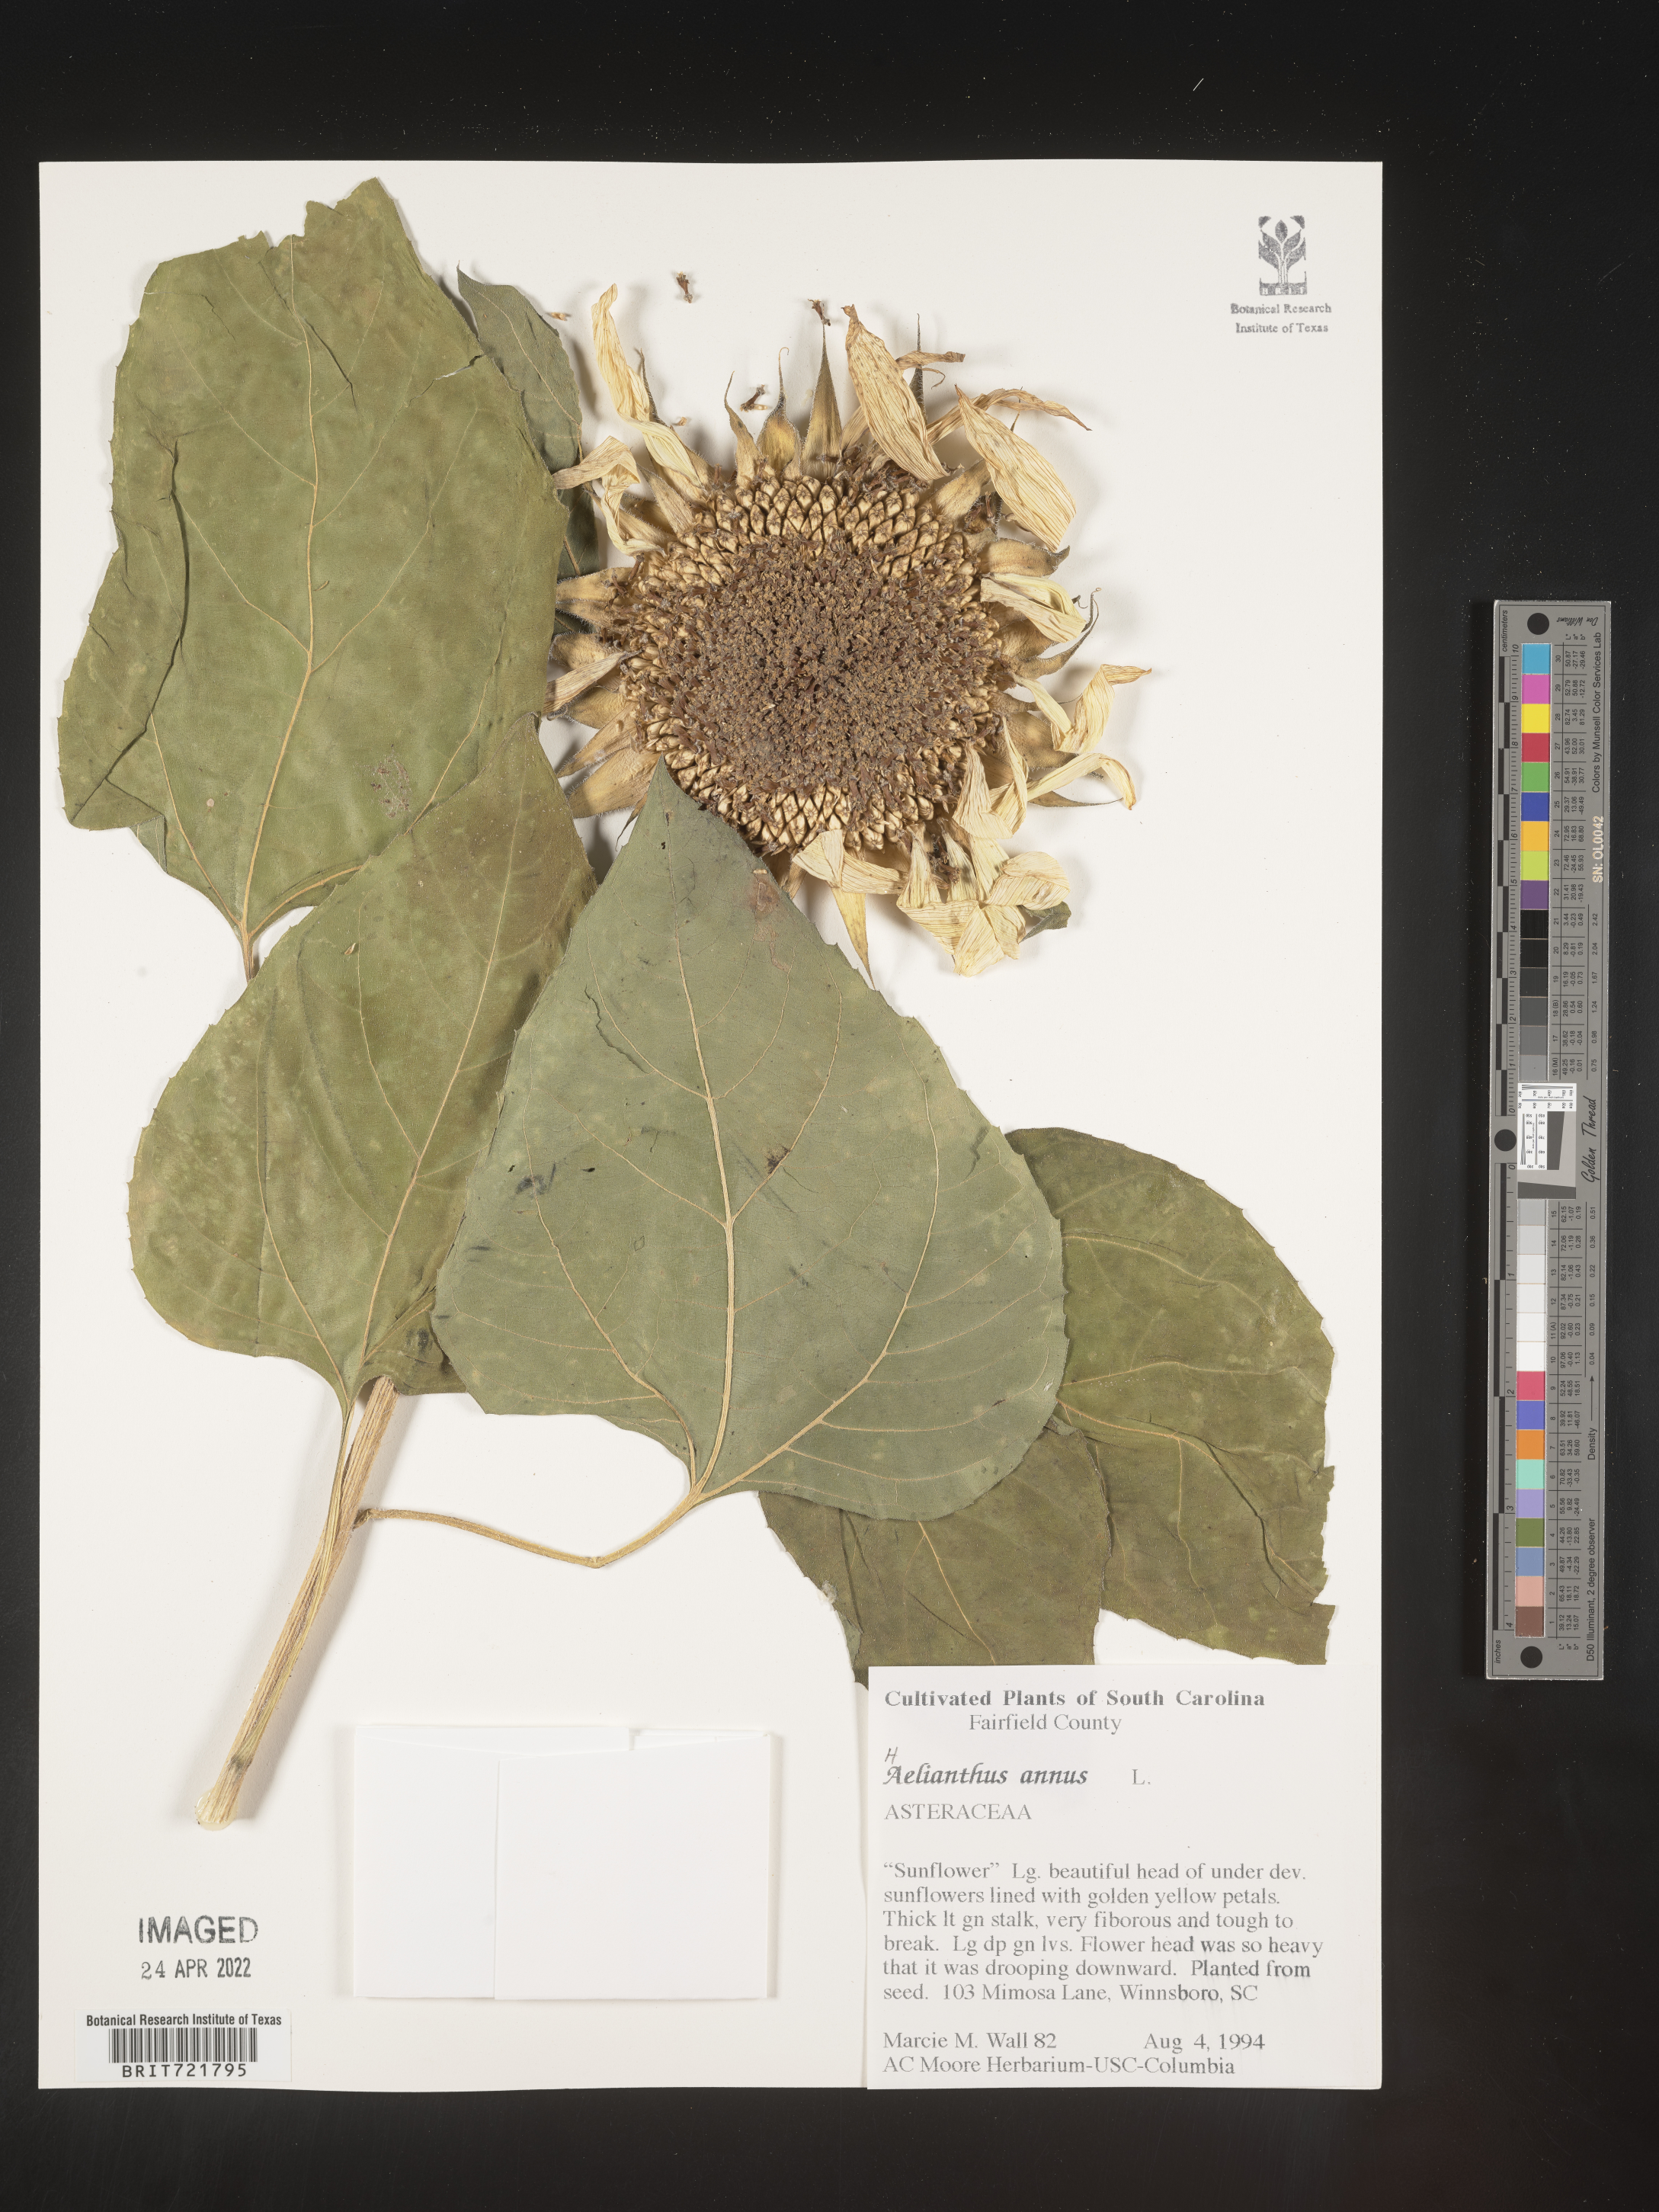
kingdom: Plantae
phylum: Tracheophyta
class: Magnoliopsida
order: Asterales
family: Asteraceae
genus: Helianthus
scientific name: Helianthus annuus
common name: Sunflower
